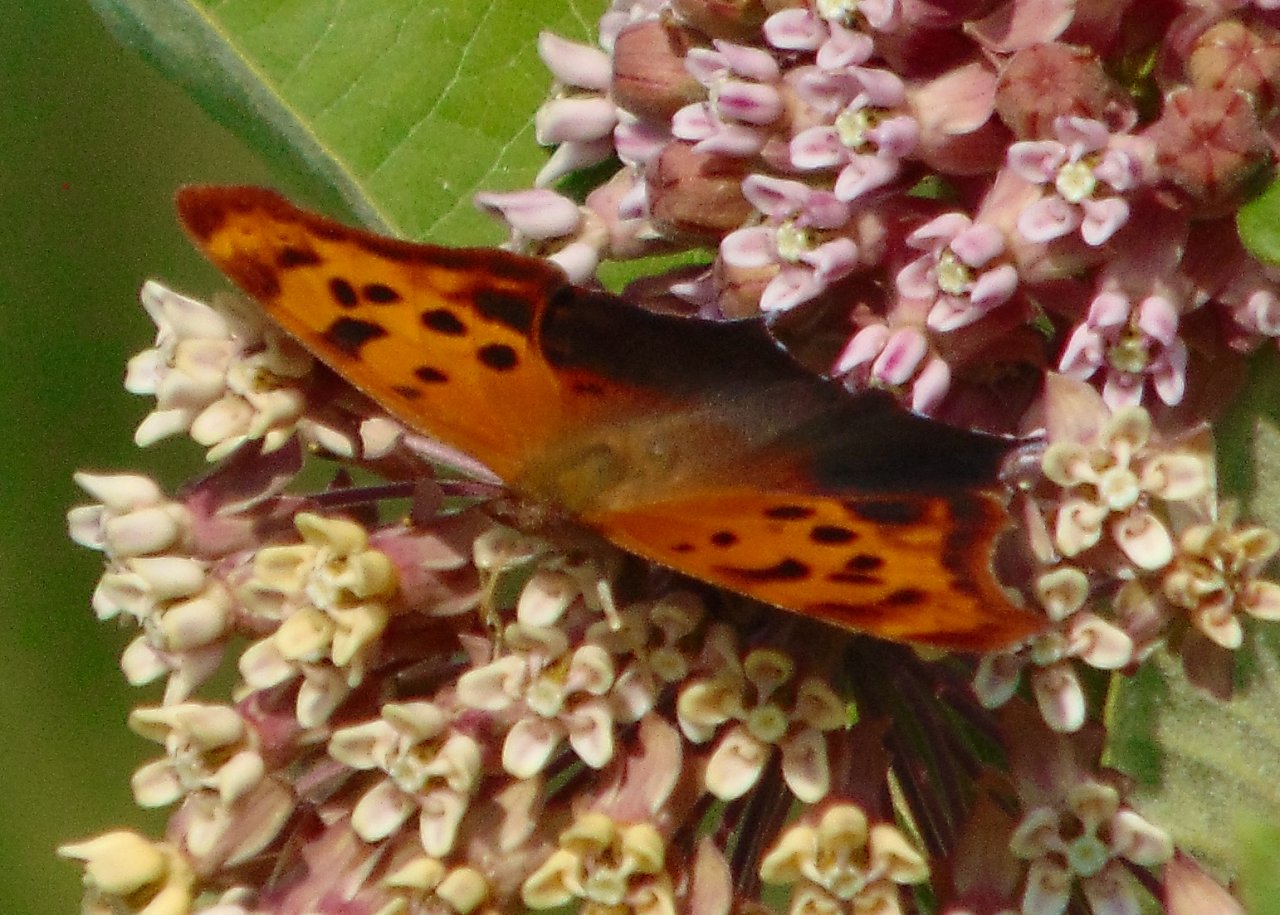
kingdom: Animalia
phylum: Arthropoda
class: Insecta
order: Lepidoptera
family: Nymphalidae
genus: Polygonia
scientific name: Polygonia interrogationis
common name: Question Mark
